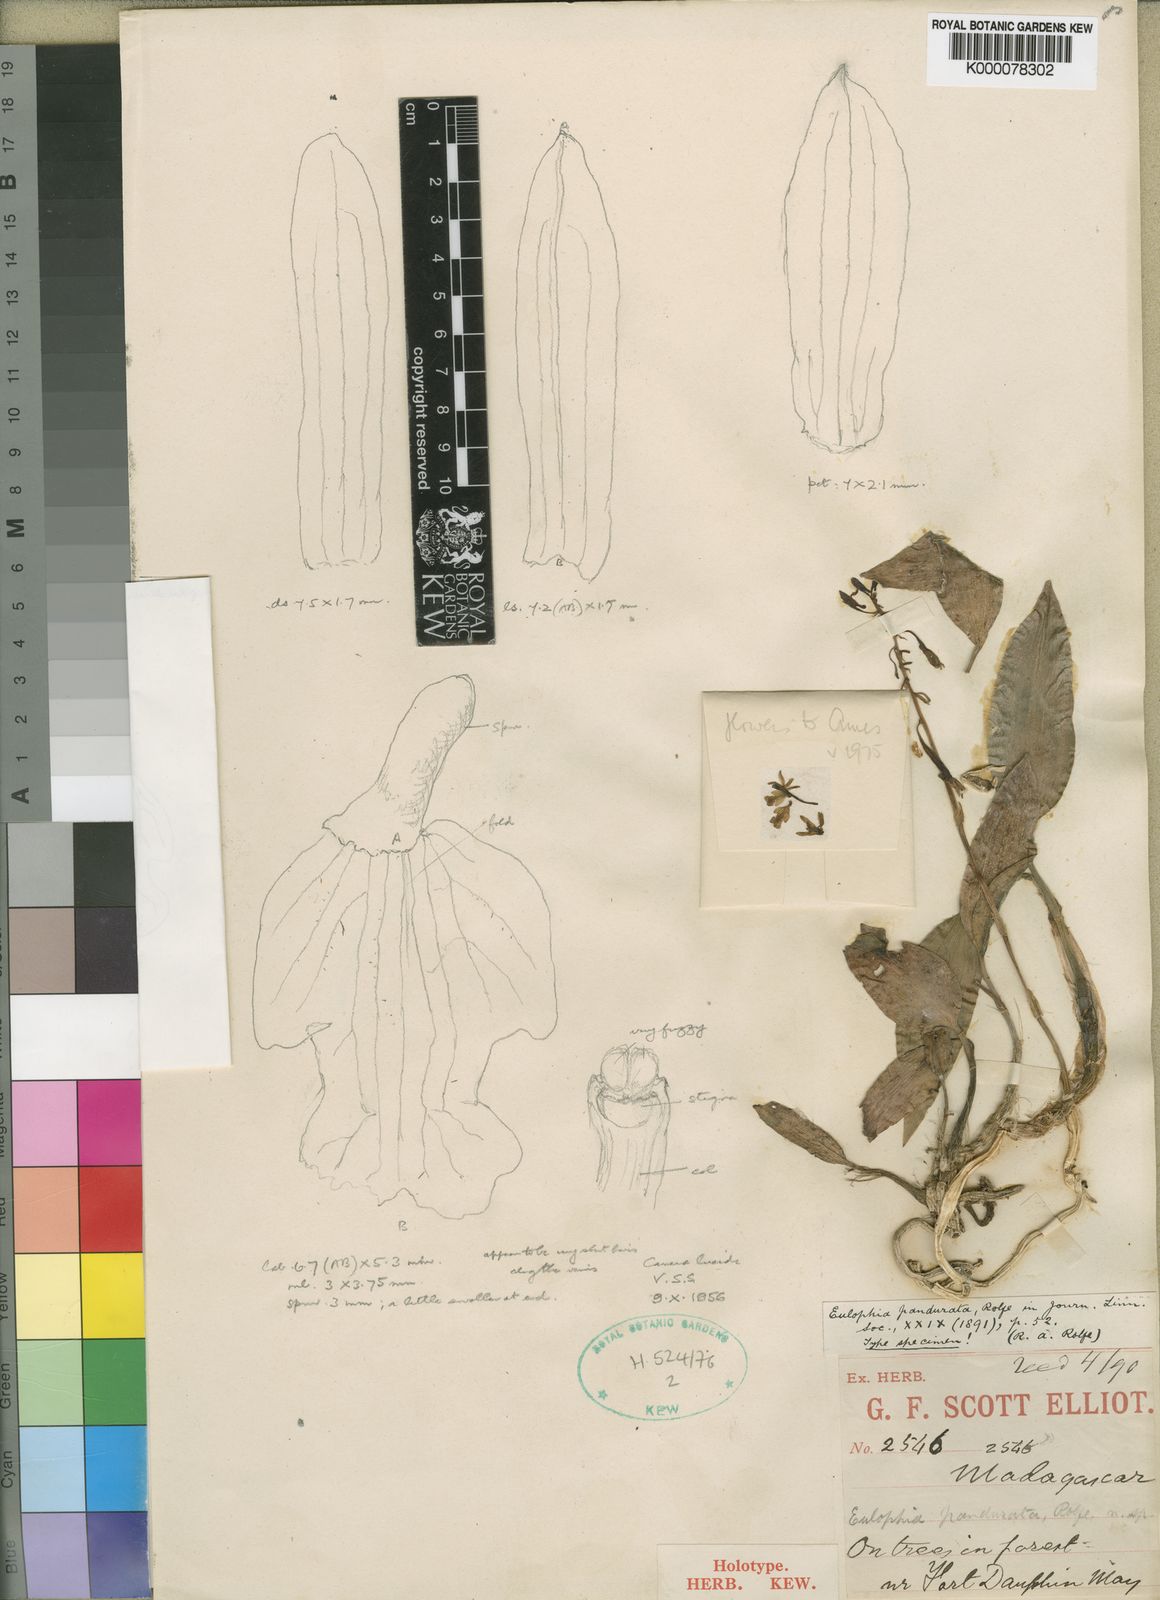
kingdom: Plantae
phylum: Tracheophyta
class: Liliopsida
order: Asparagales
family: Orchidaceae
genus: Eulophia
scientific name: Eulophia pandurata
